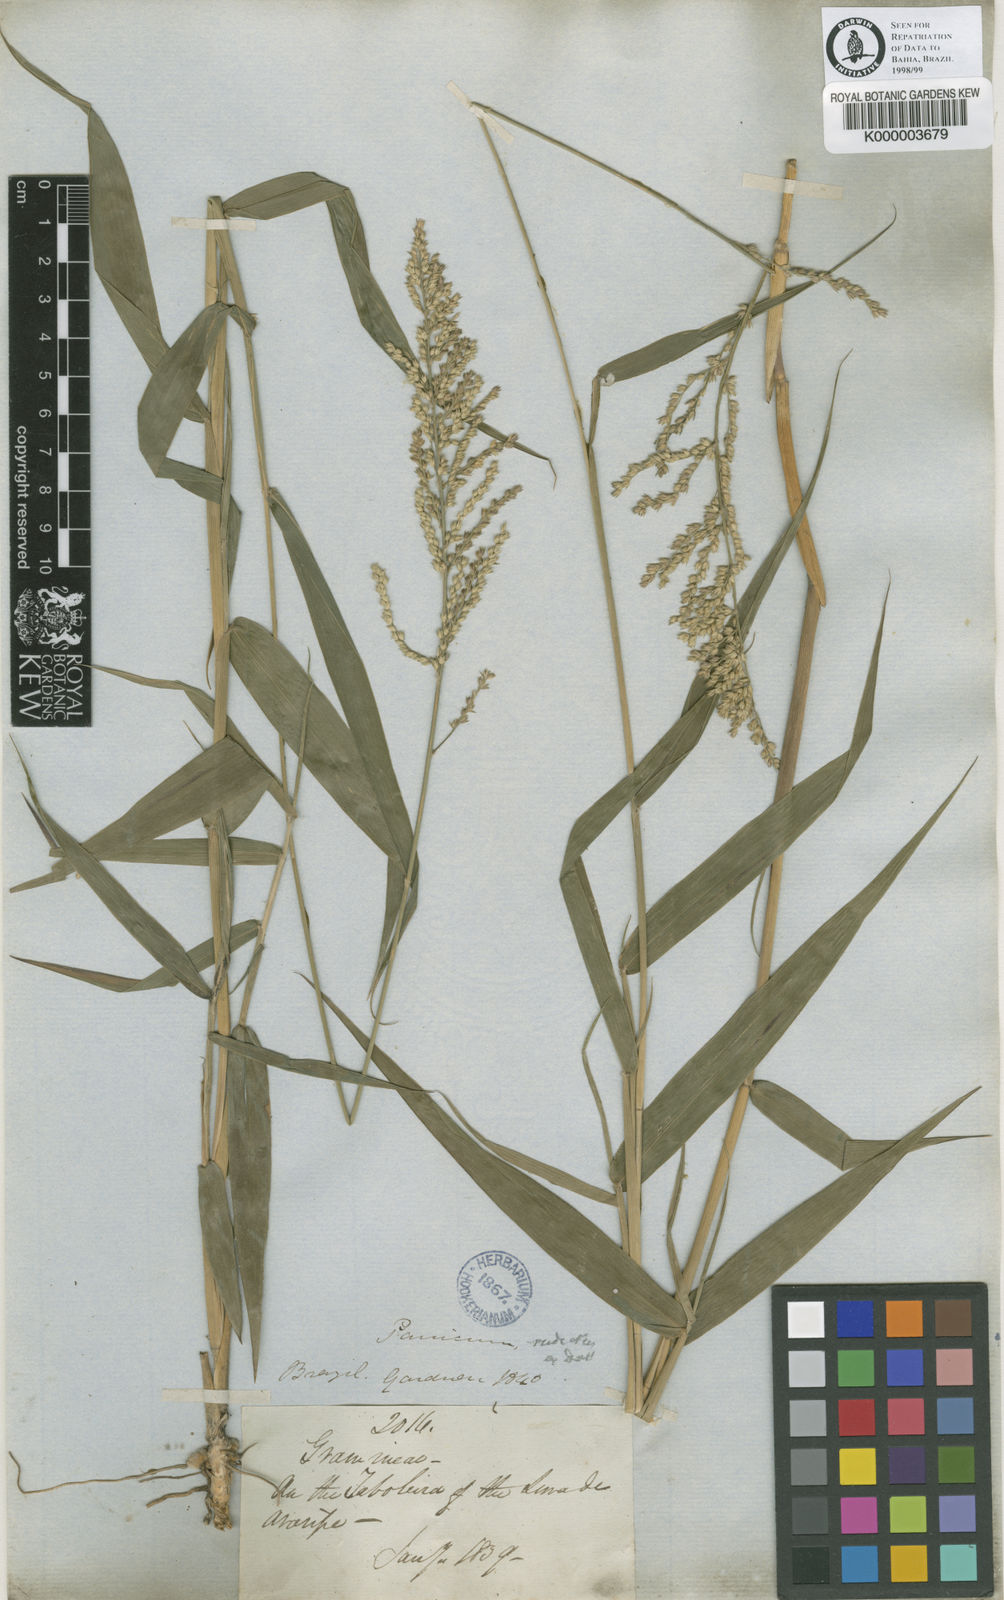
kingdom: Plantae
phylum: Tracheophyta
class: Liliopsida
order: Poales
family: Poaceae
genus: Ocellochloa
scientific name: Ocellochloa chapadensis
